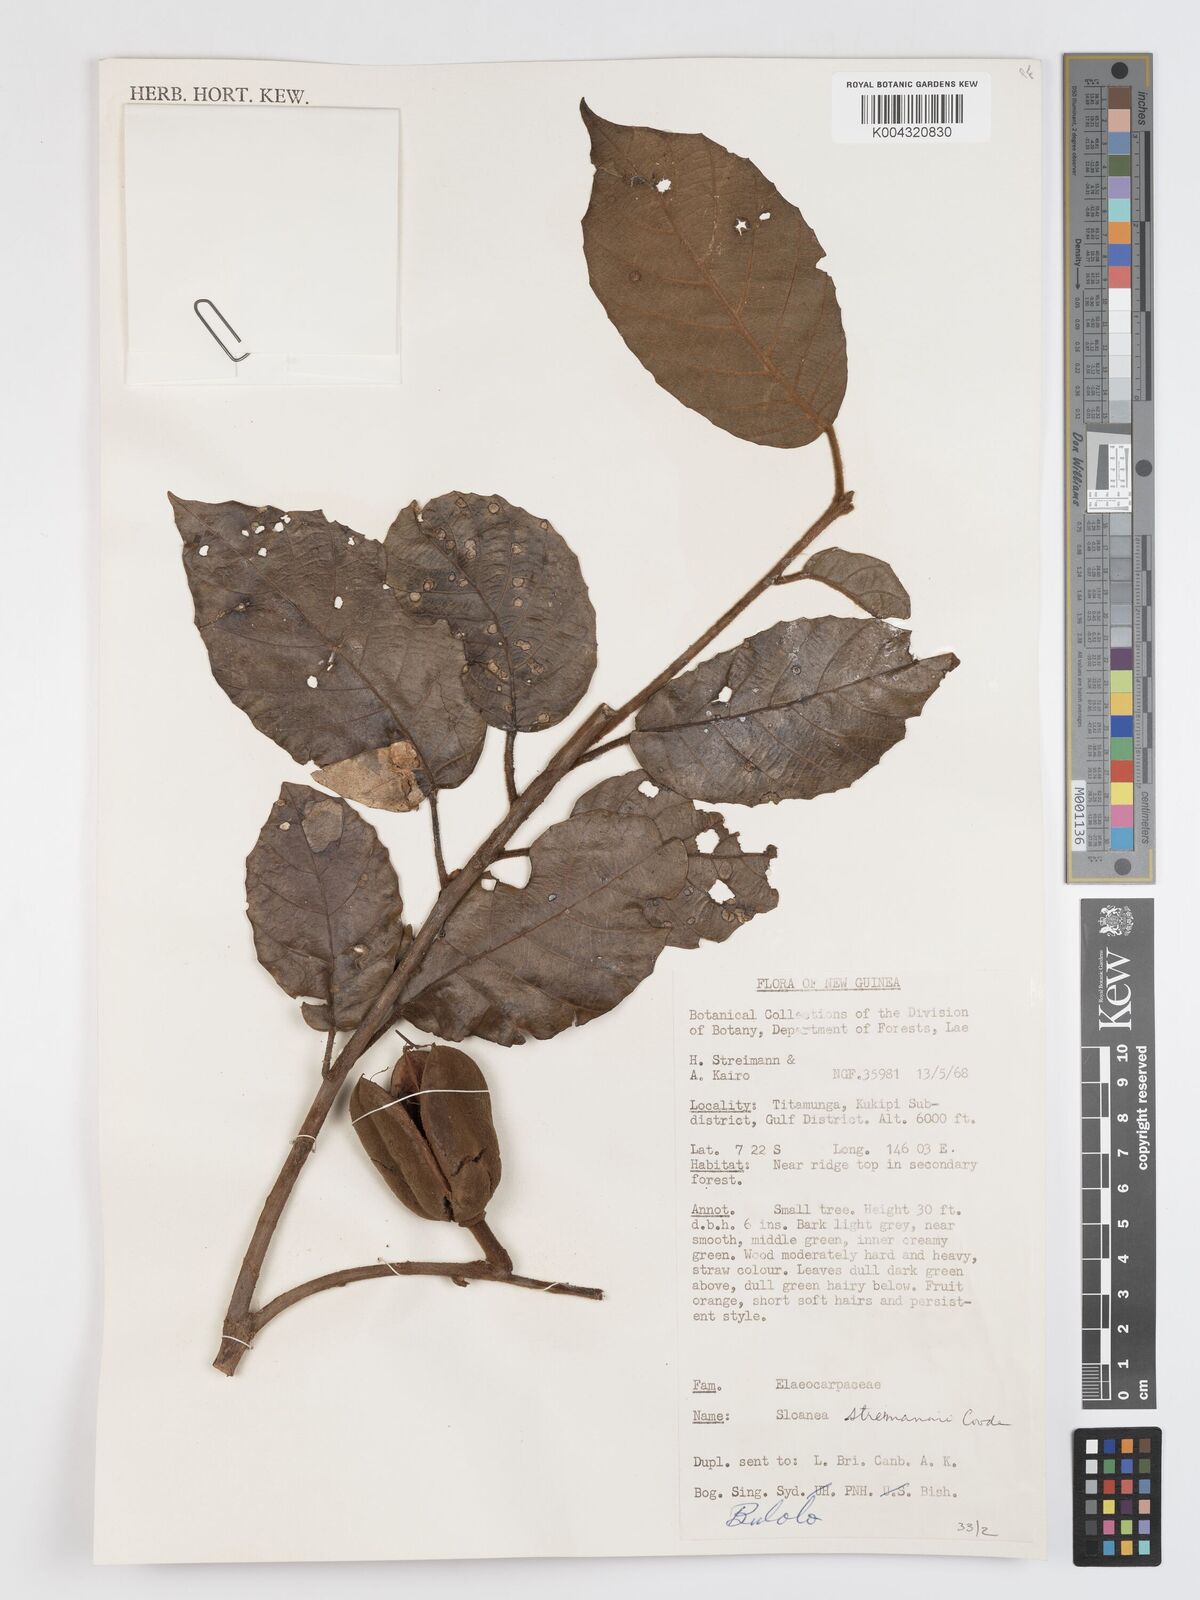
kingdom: Plantae
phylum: Tracheophyta
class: Magnoliopsida
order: Oxalidales
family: Elaeocarpaceae
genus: Sloanea
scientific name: Sloanea streimannii
